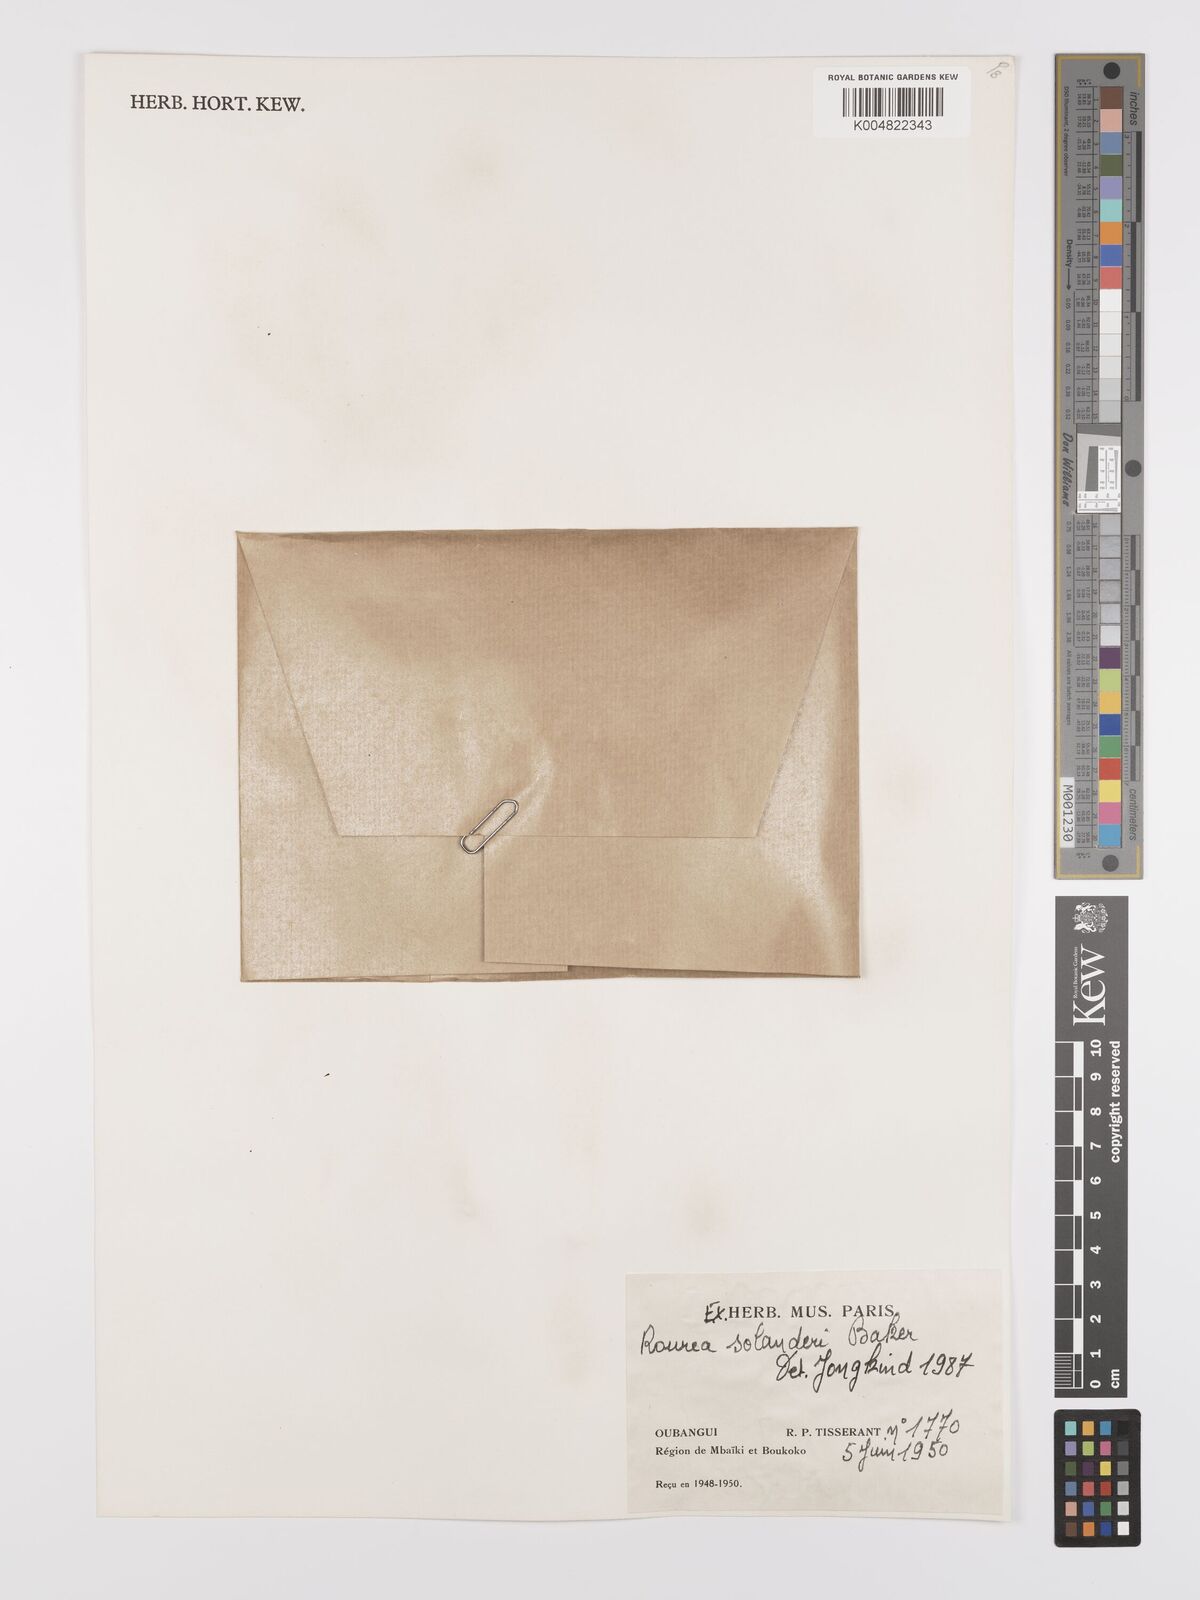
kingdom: Plantae
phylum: Tracheophyta
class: Magnoliopsida
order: Oxalidales
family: Connaraceae
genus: Rourea
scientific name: Rourea solanderi
